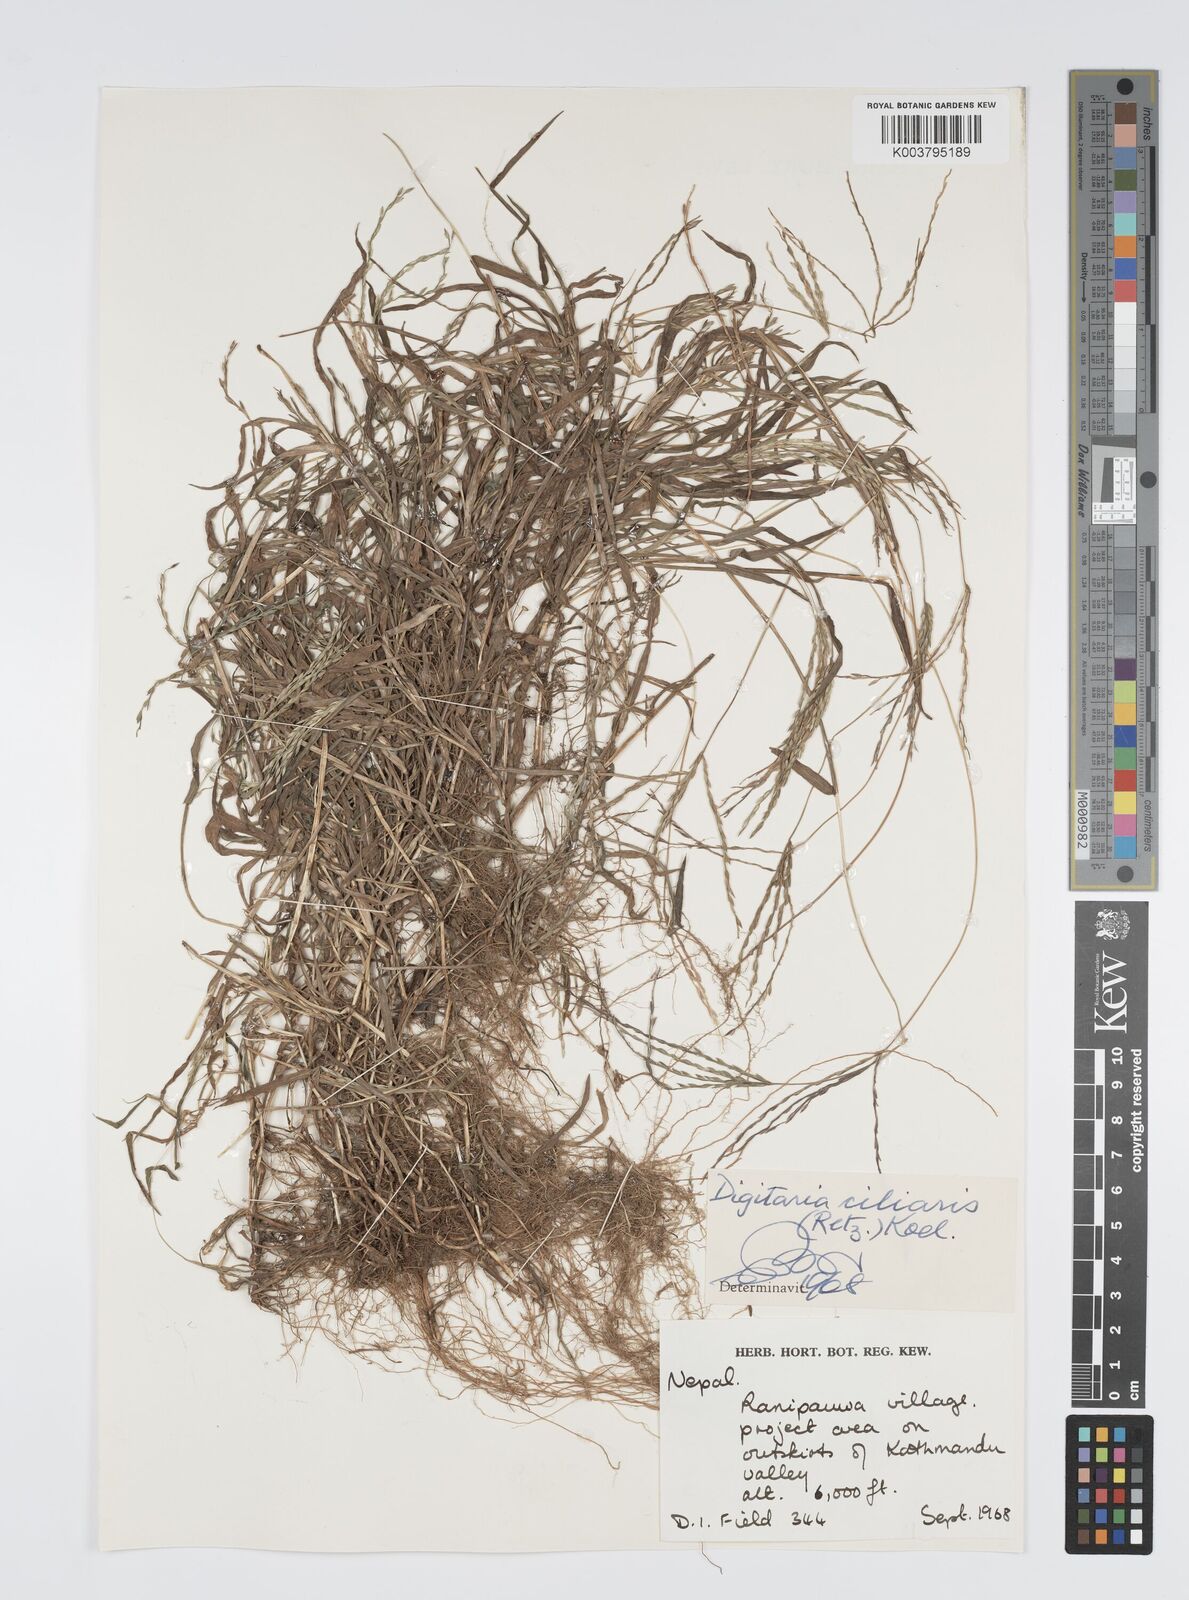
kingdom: Plantae
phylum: Tracheophyta
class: Liliopsida
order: Poales
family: Poaceae
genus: Digitaria
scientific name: Digitaria ciliaris
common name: Tropical finger-grass
